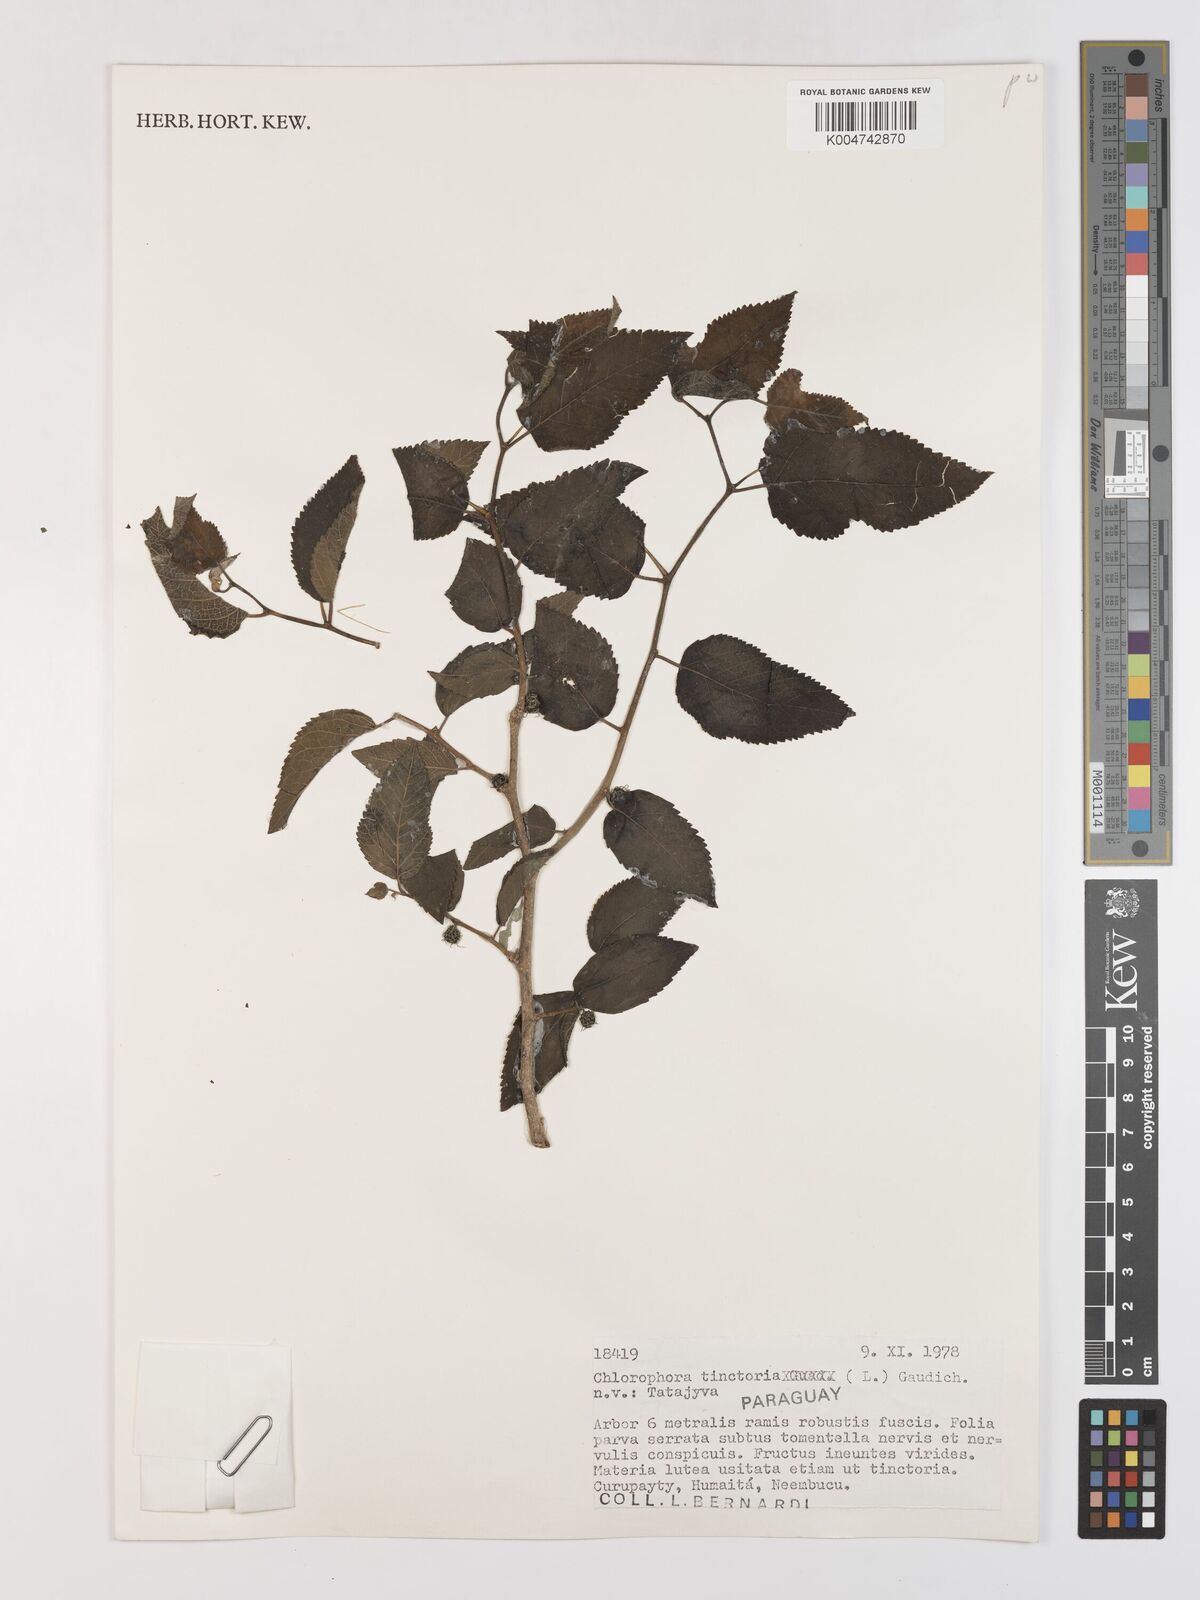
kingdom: Plantae
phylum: Tracheophyta
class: Magnoliopsida
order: Rosales
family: Moraceae
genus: Maclura
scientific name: Maclura tinctoria
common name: Old fustic
